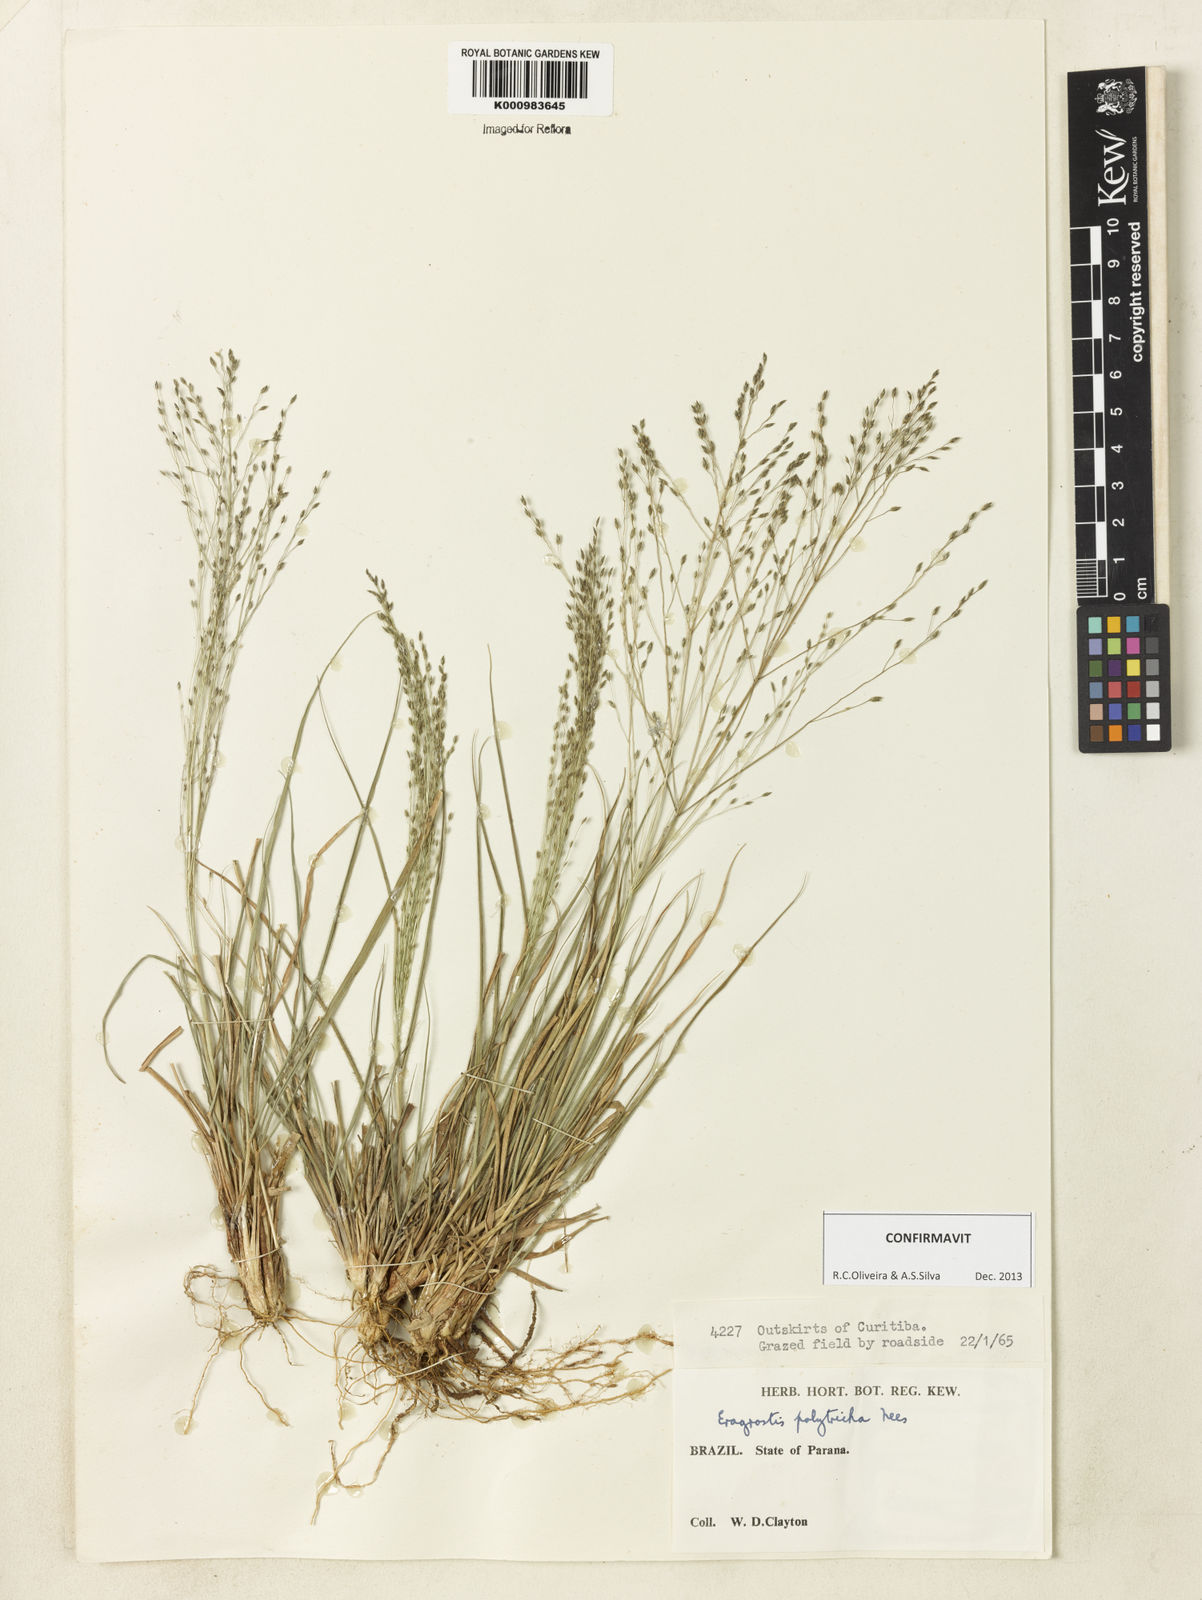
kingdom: Plantae
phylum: Tracheophyta
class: Liliopsida
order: Poales
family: Poaceae
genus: Eragrostis
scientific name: Eragrostis polytricha
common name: Hairy-sheath love grass
